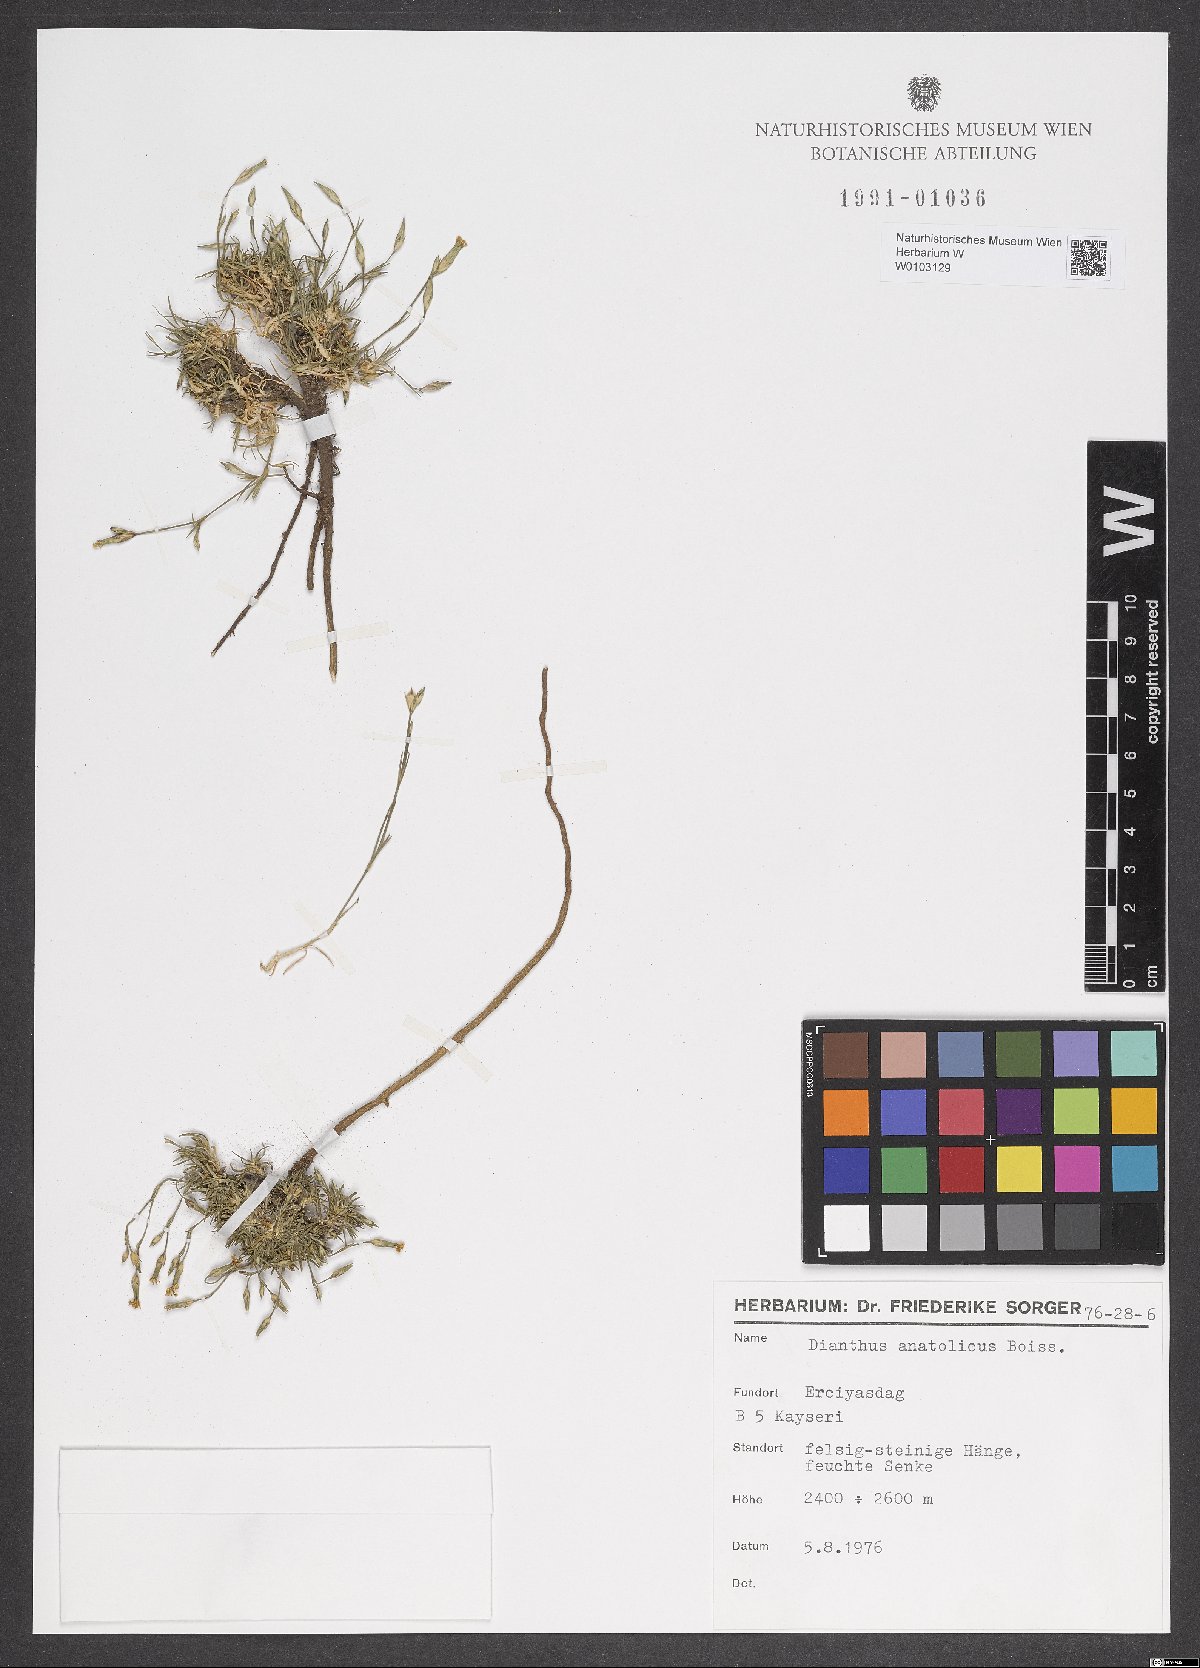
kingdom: Plantae
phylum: Tracheophyta
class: Magnoliopsida
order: Caryophyllales
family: Caryophyllaceae
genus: Dianthus
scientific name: Dianthus anatolicus
